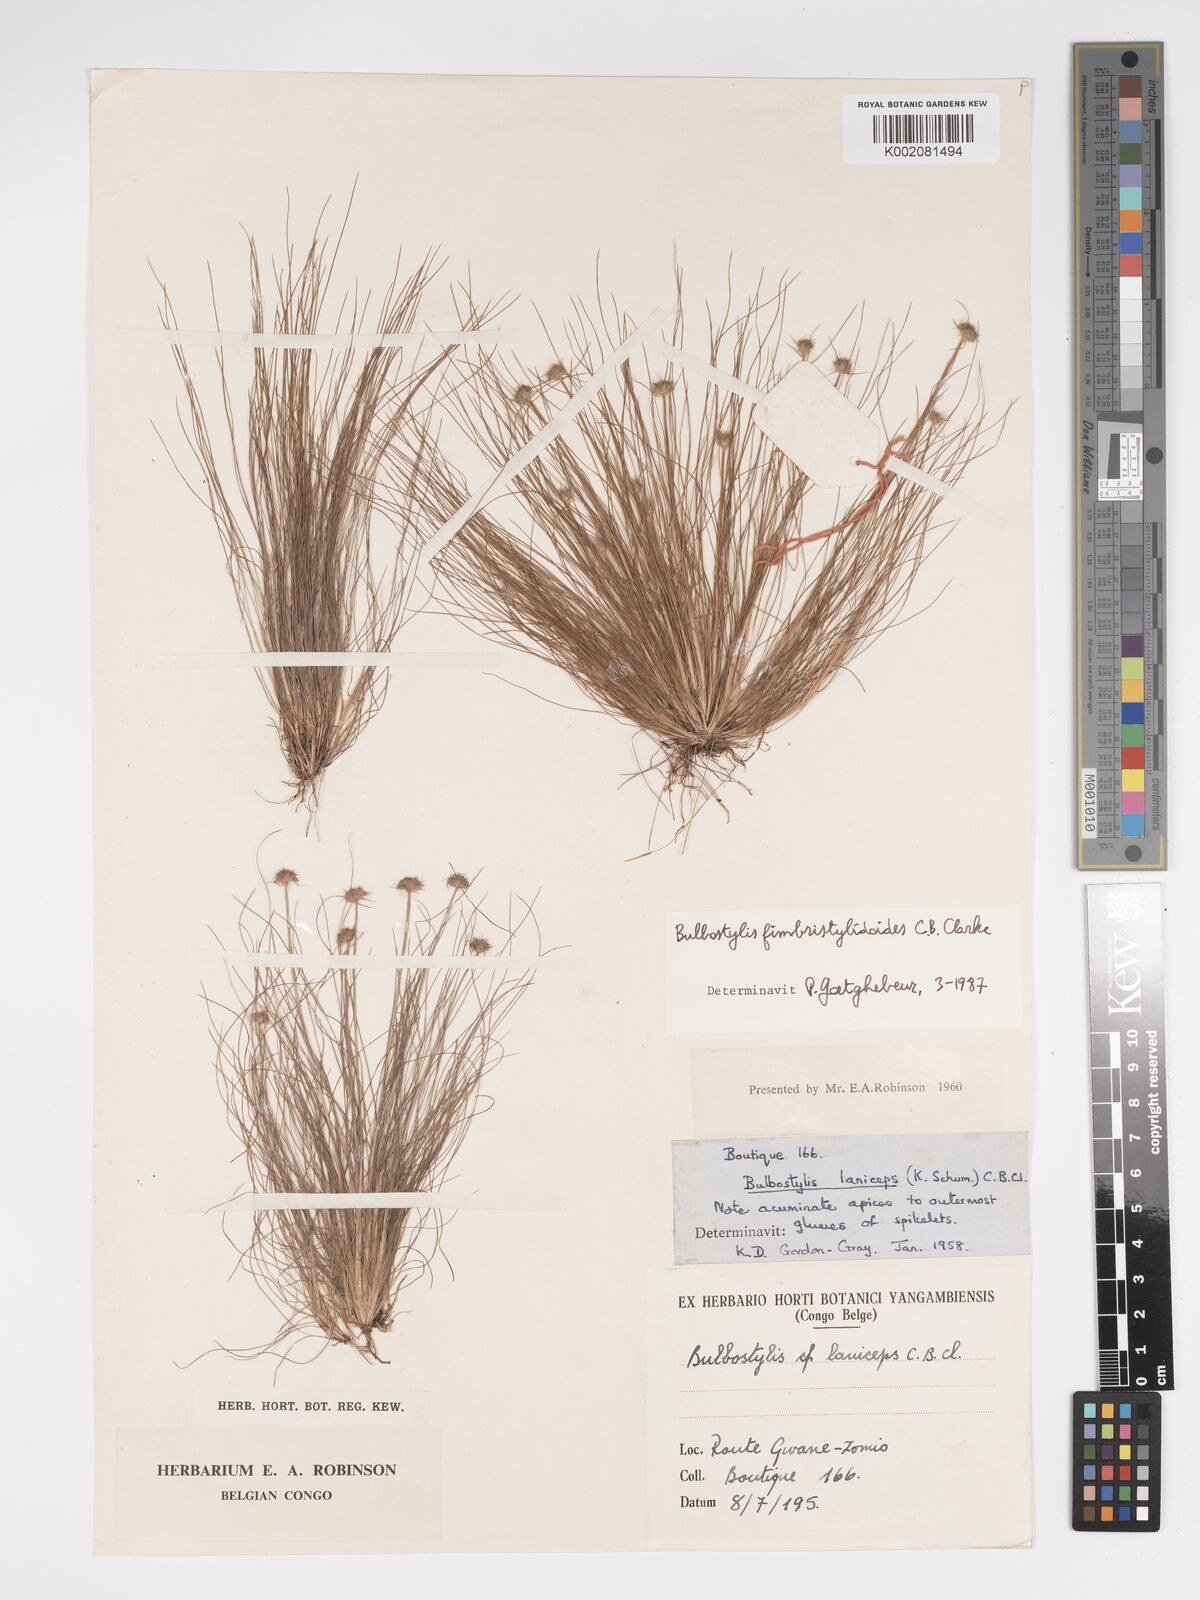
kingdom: Plantae
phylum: Tracheophyta
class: Liliopsida
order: Poales
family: Cyperaceae
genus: Bulbostylis
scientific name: Bulbostylis fimbristyloides
